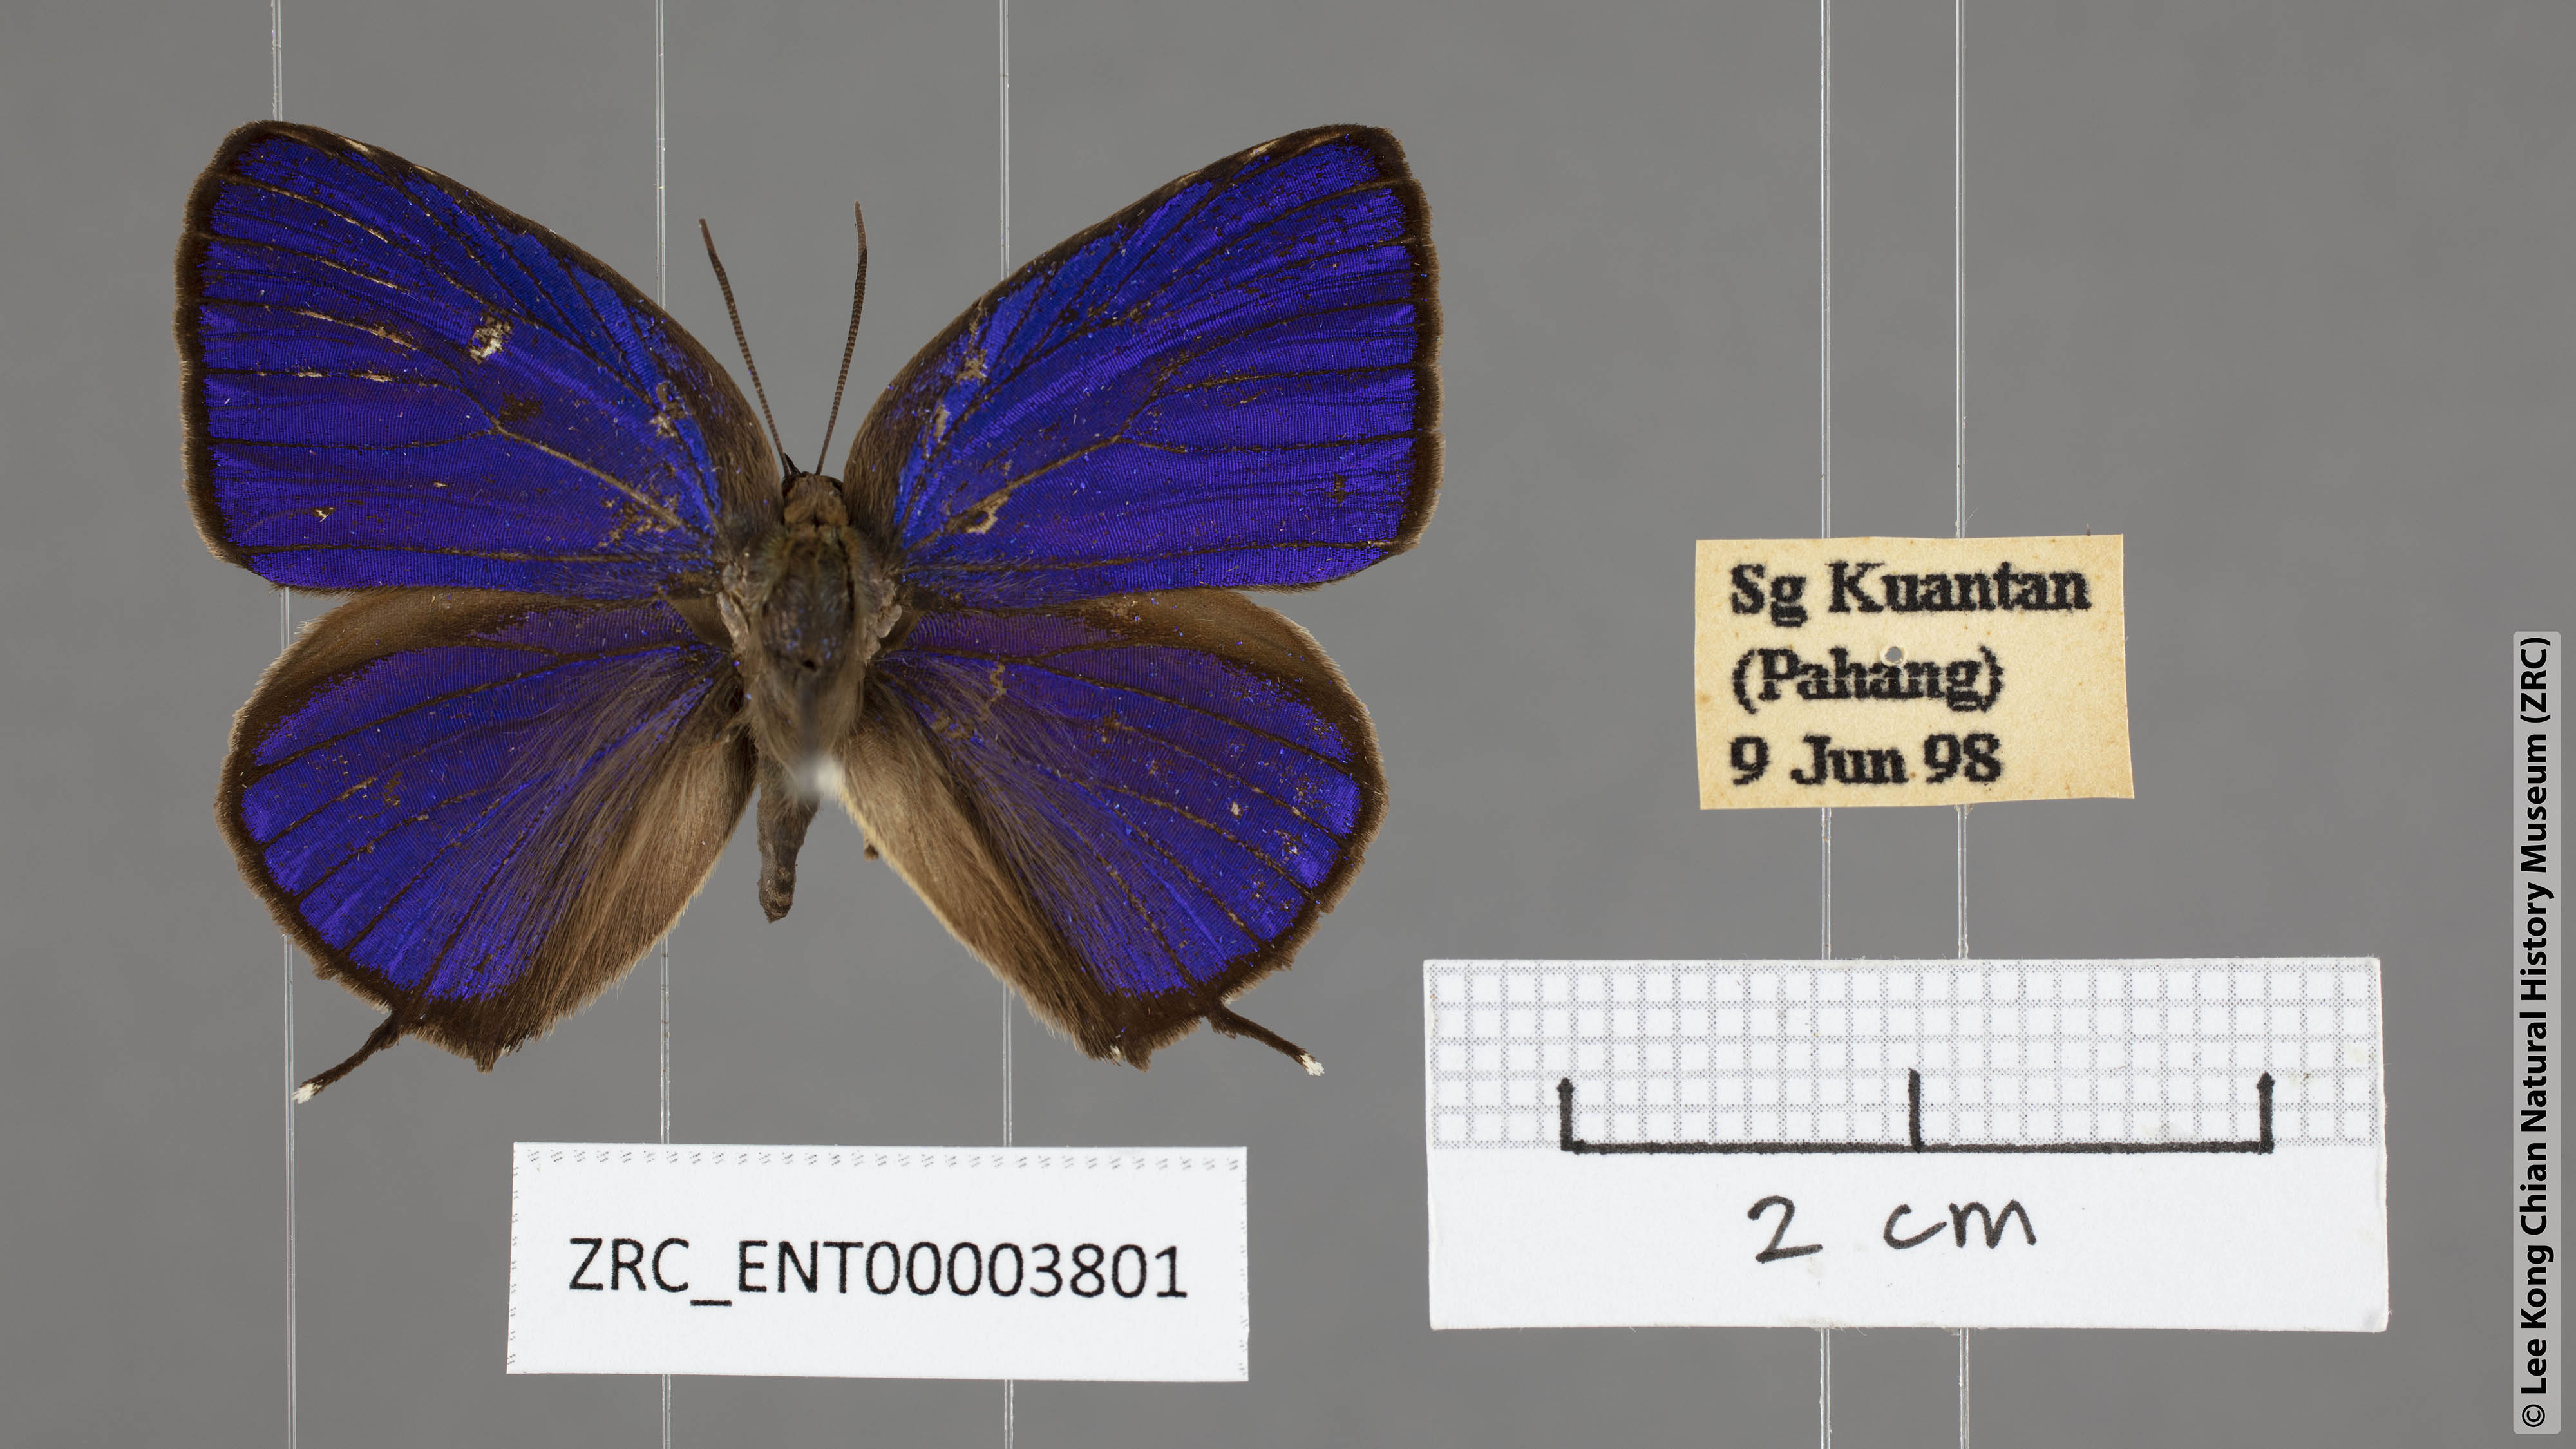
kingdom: Animalia
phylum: Arthropoda
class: Insecta
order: Lepidoptera
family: Lycaenidae
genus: Arhopala
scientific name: Arhopala achelous
